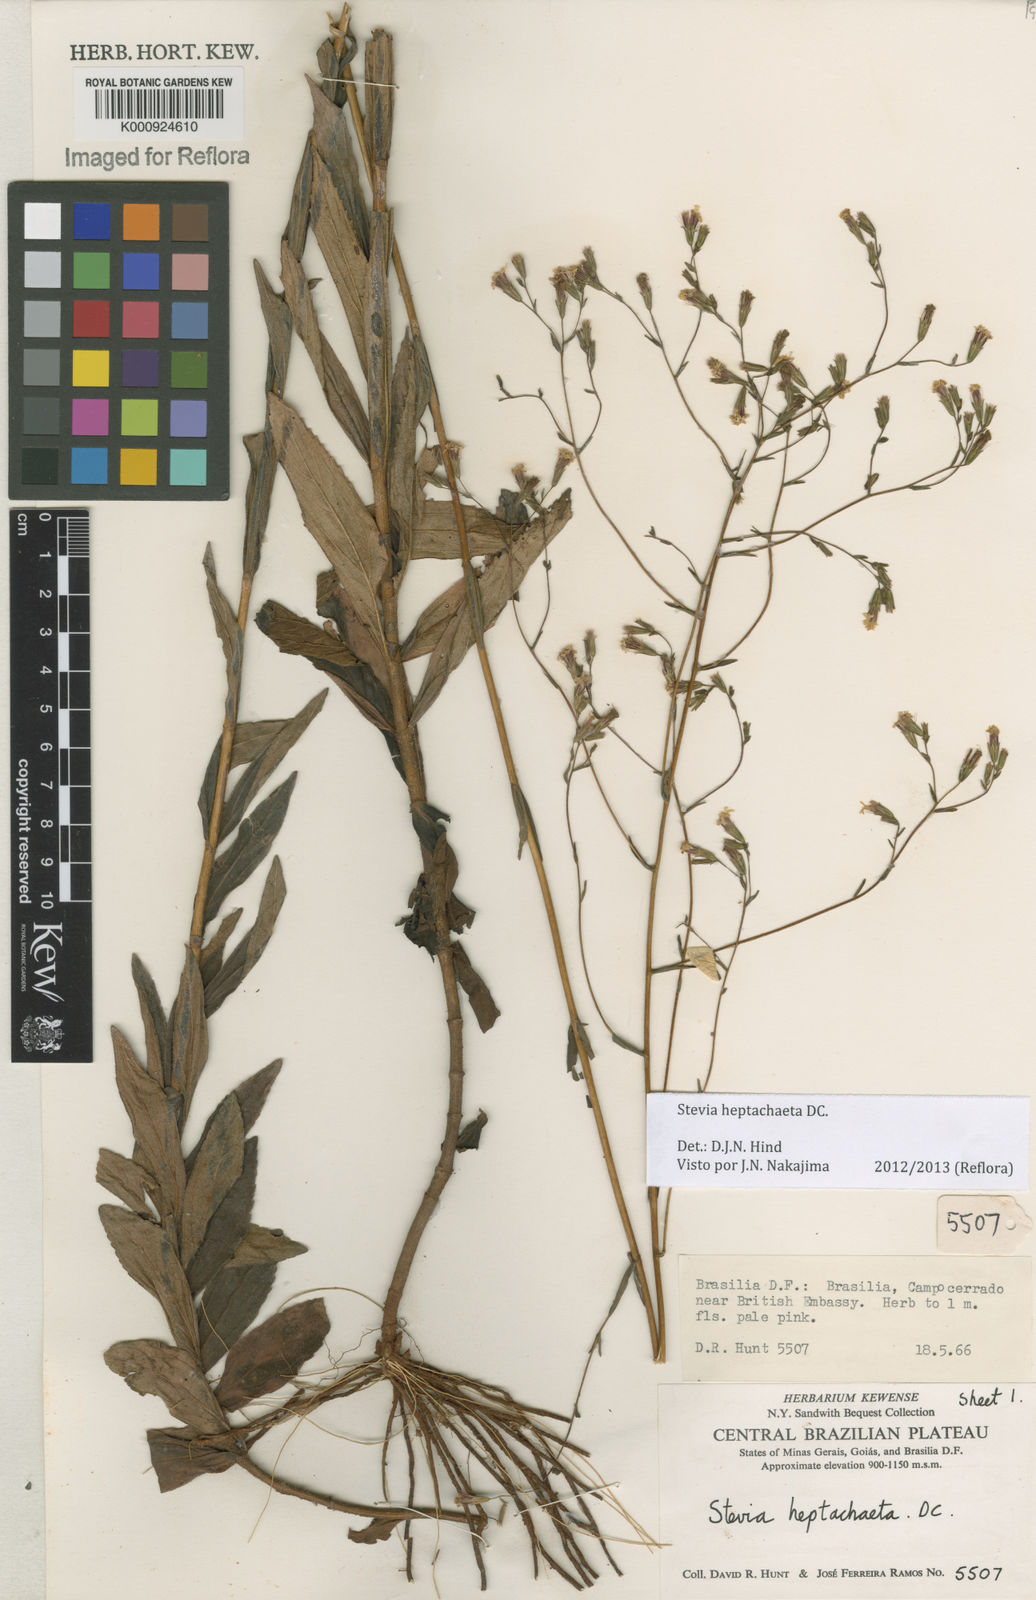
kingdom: Plantae
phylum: Tracheophyta
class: Magnoliopsida
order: Asterales
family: Asteraceae
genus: Stevia
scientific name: Stevia heptachaeta
